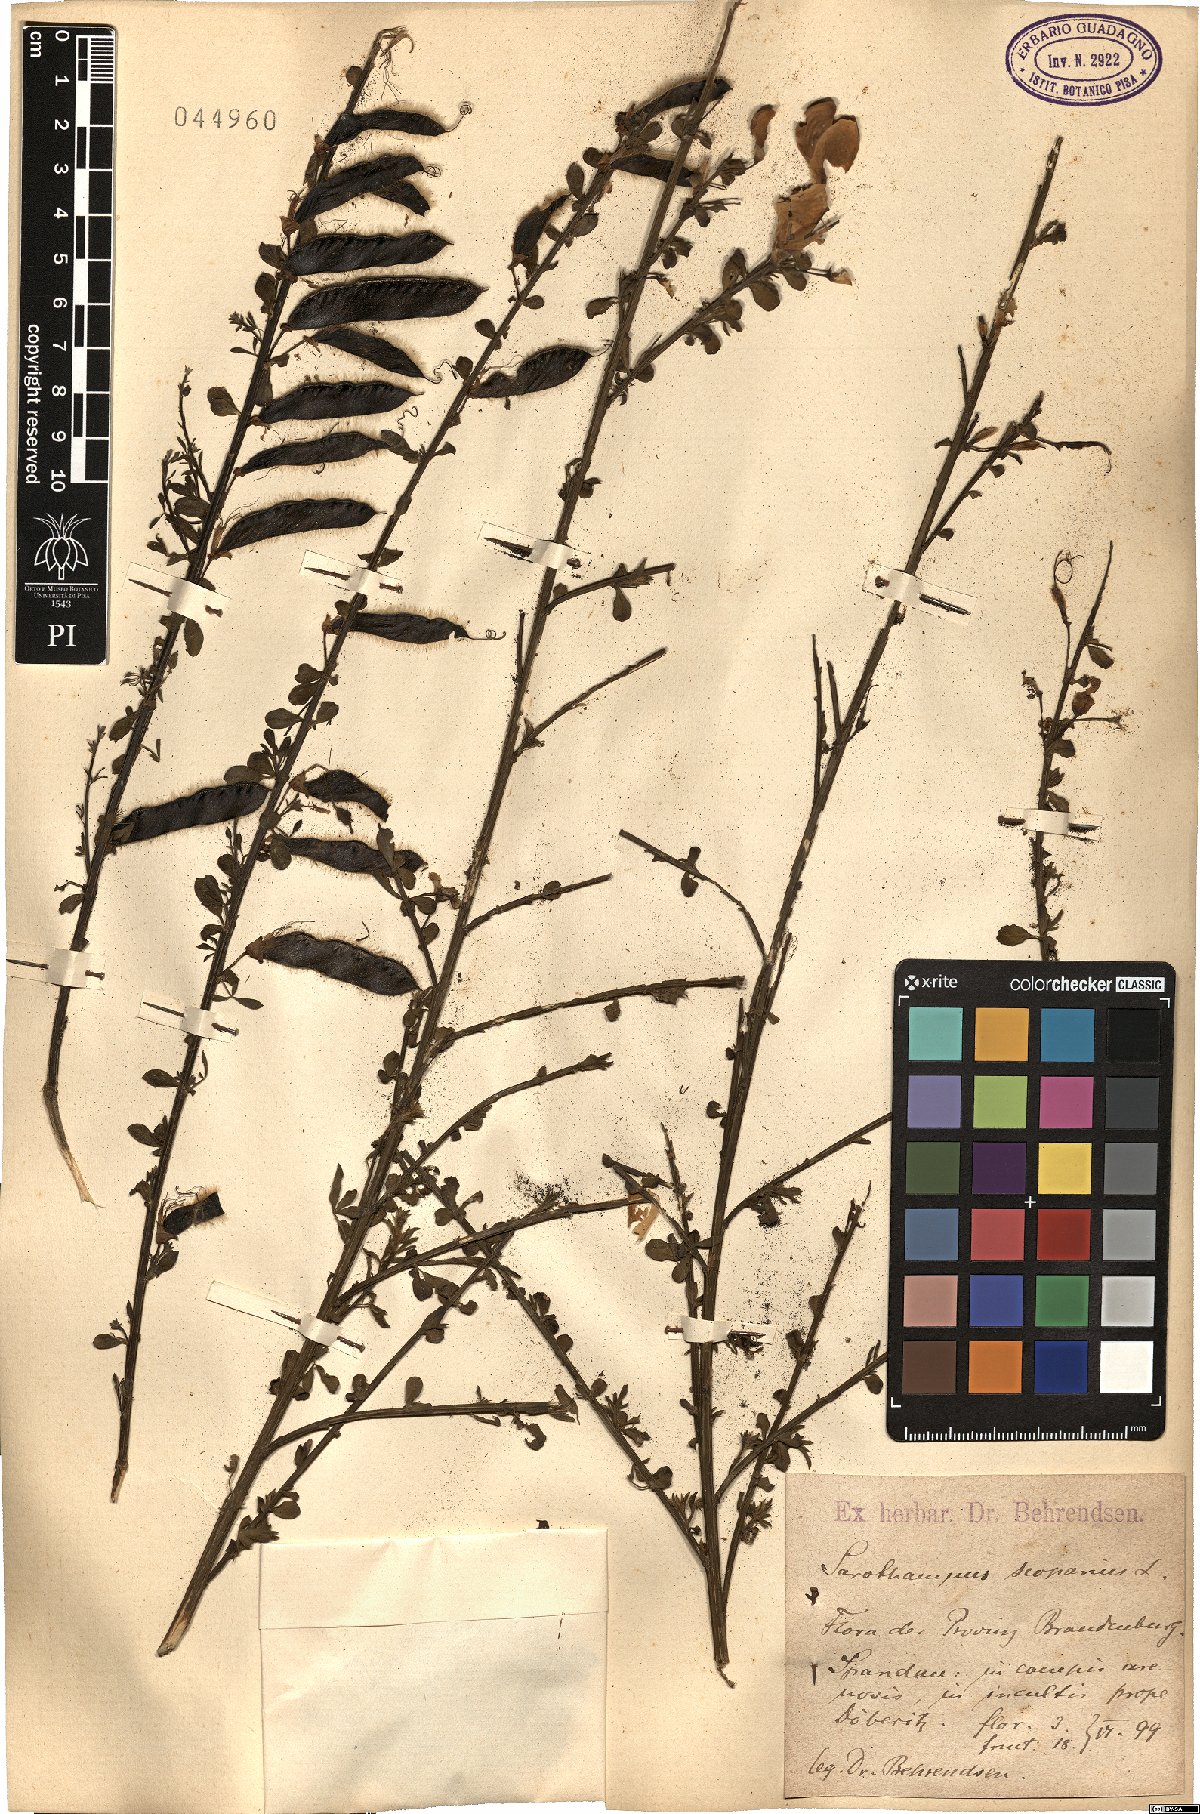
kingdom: Plantae
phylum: Tracheophyta
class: Magnoliopsida
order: Fabales
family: Fabaceae
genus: Cytisus
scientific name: Cytisus scoparius
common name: Scotch broom
